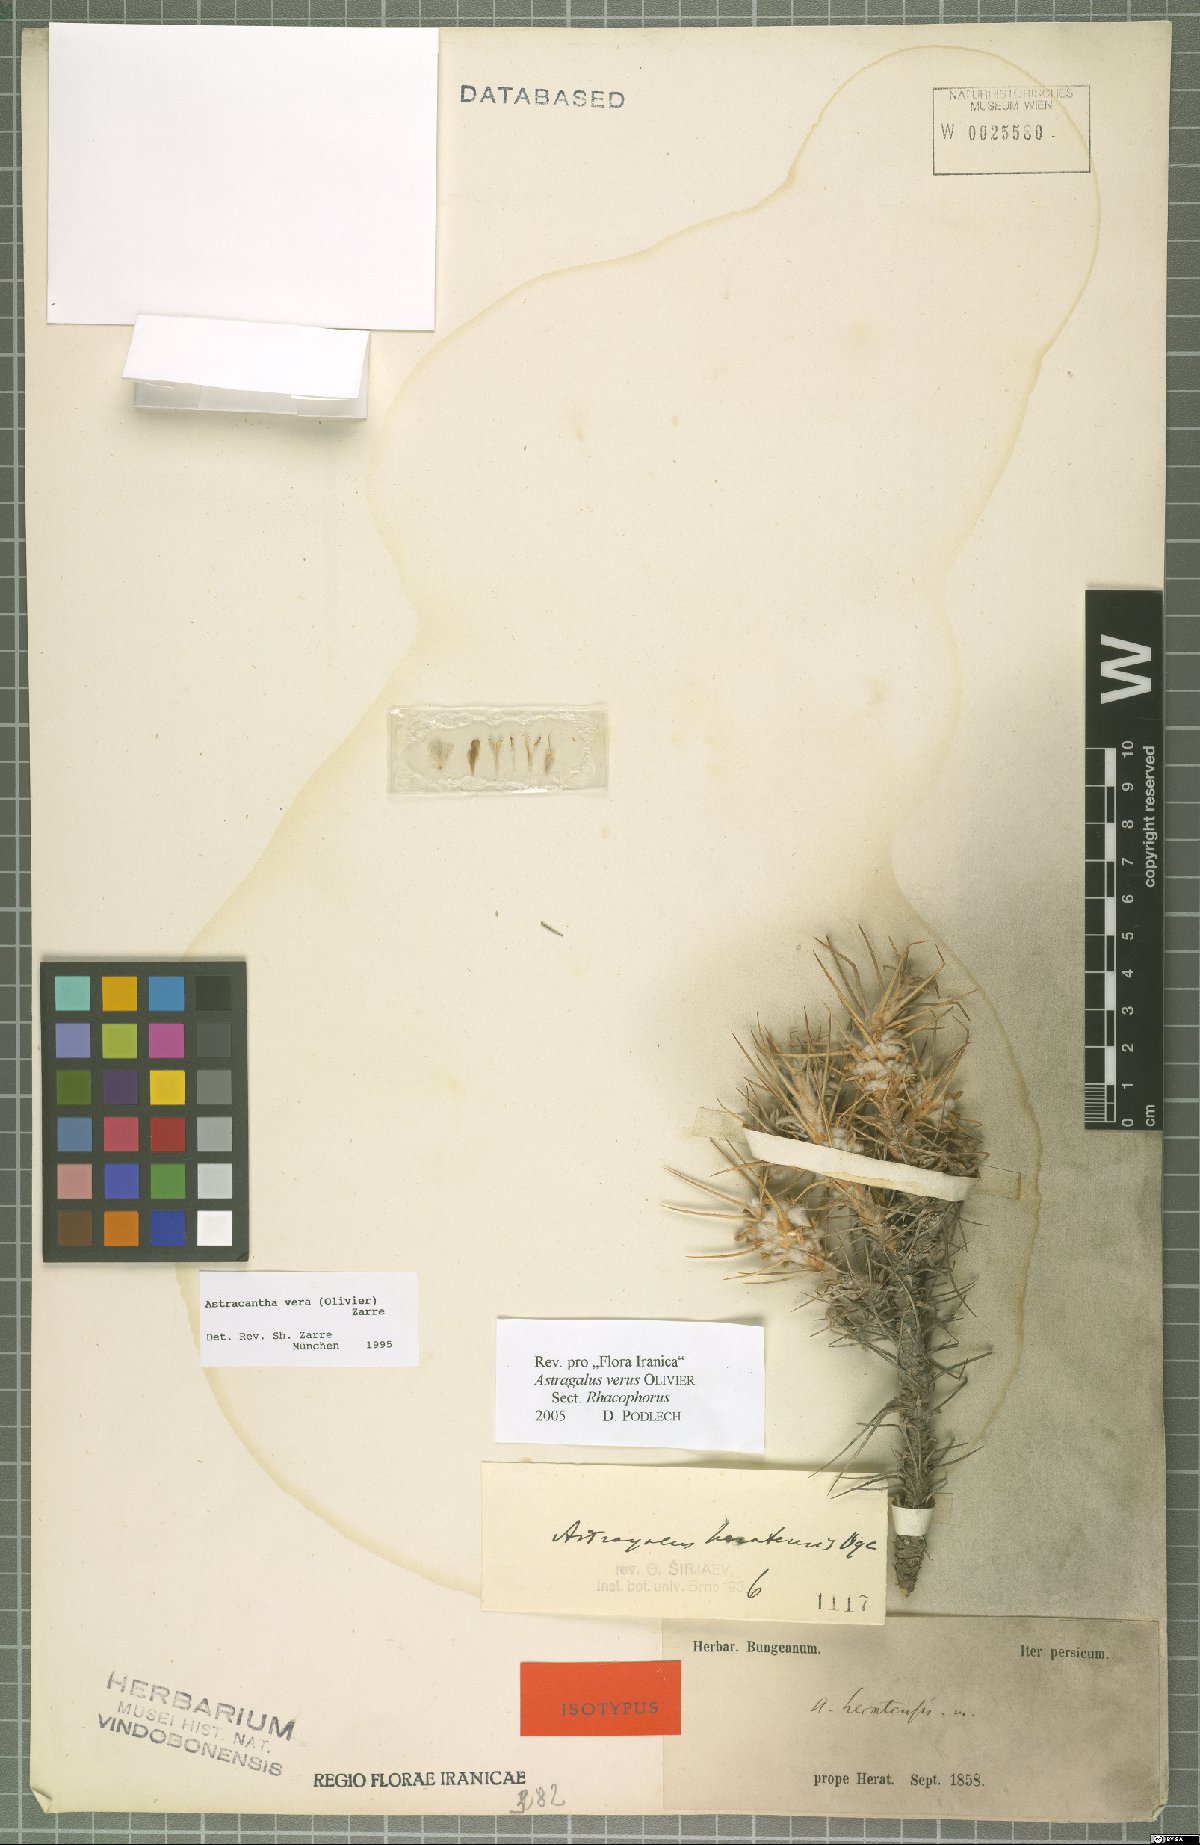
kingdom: Plantae
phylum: Tracheophyta
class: Magnoliopsida
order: Fabales
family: Fabaceae
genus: Astragalus
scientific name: Astragalus verus
